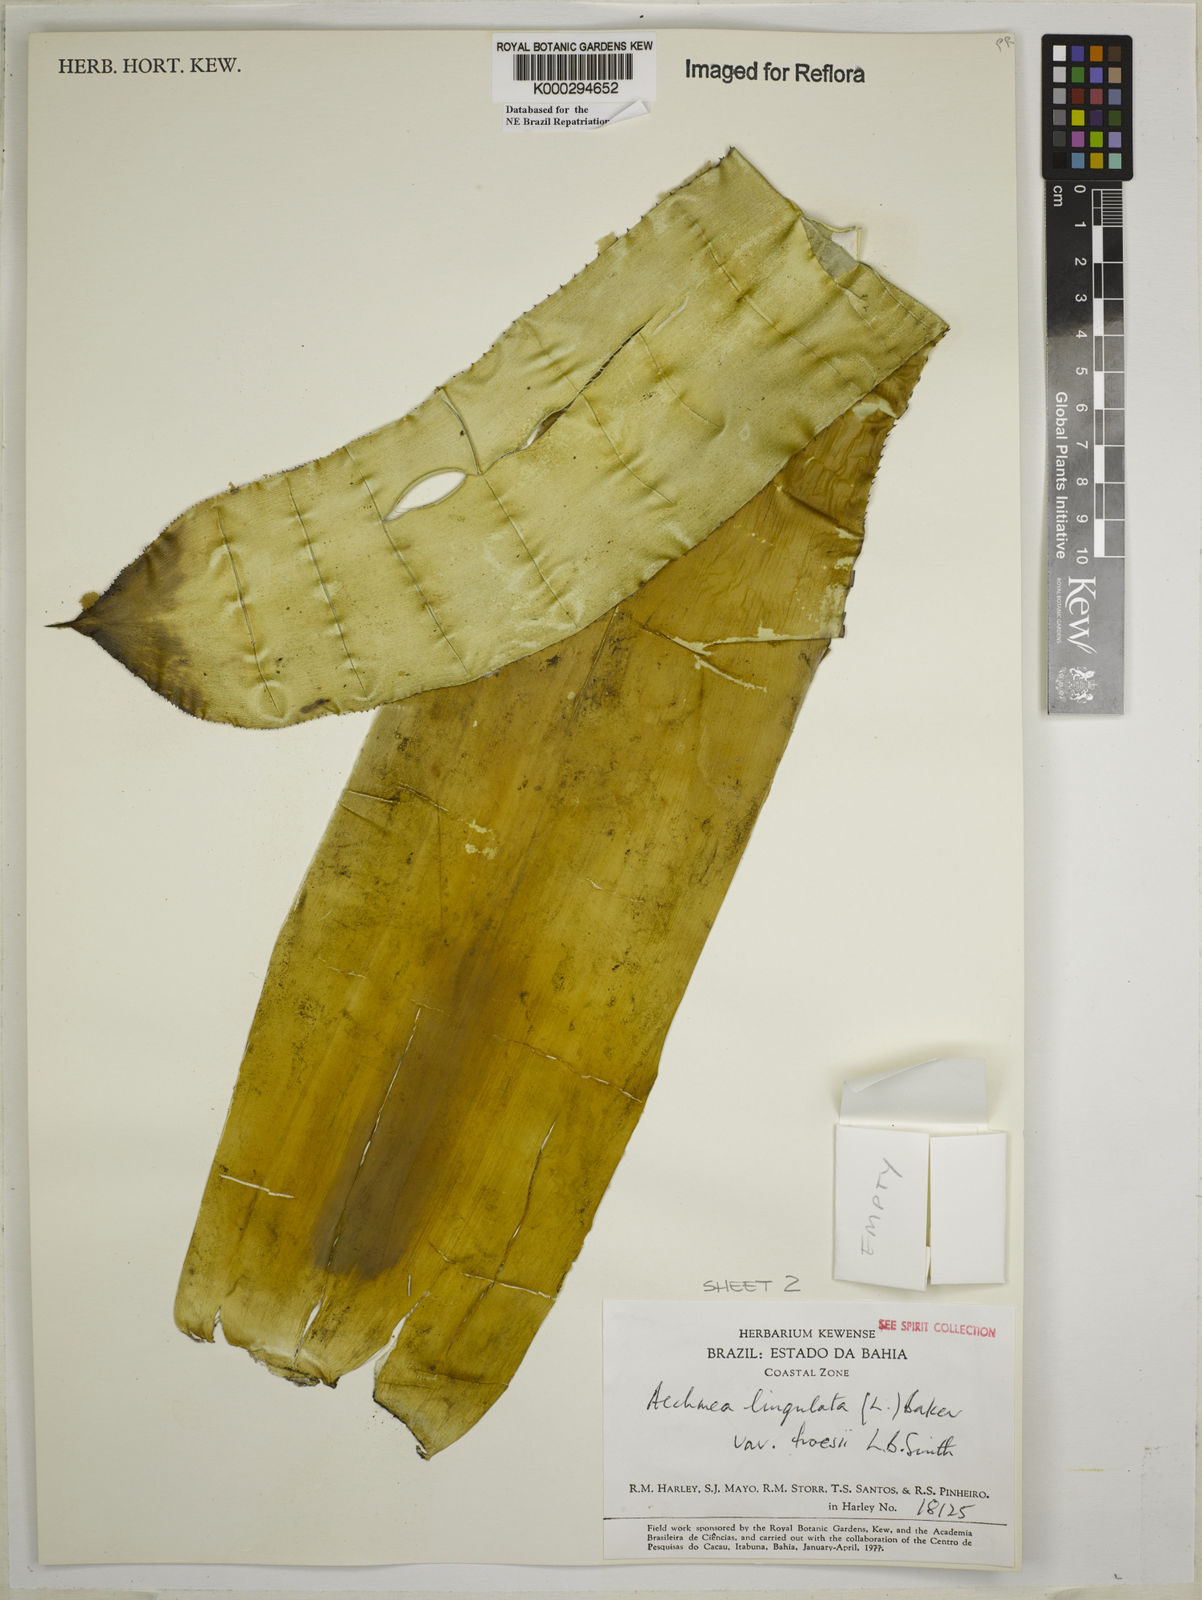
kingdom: Plantae
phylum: Tracheophyta
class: Liliopsida
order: Poales
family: Bromeliaceae
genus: Wittmackia
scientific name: Wittmackia froesii
